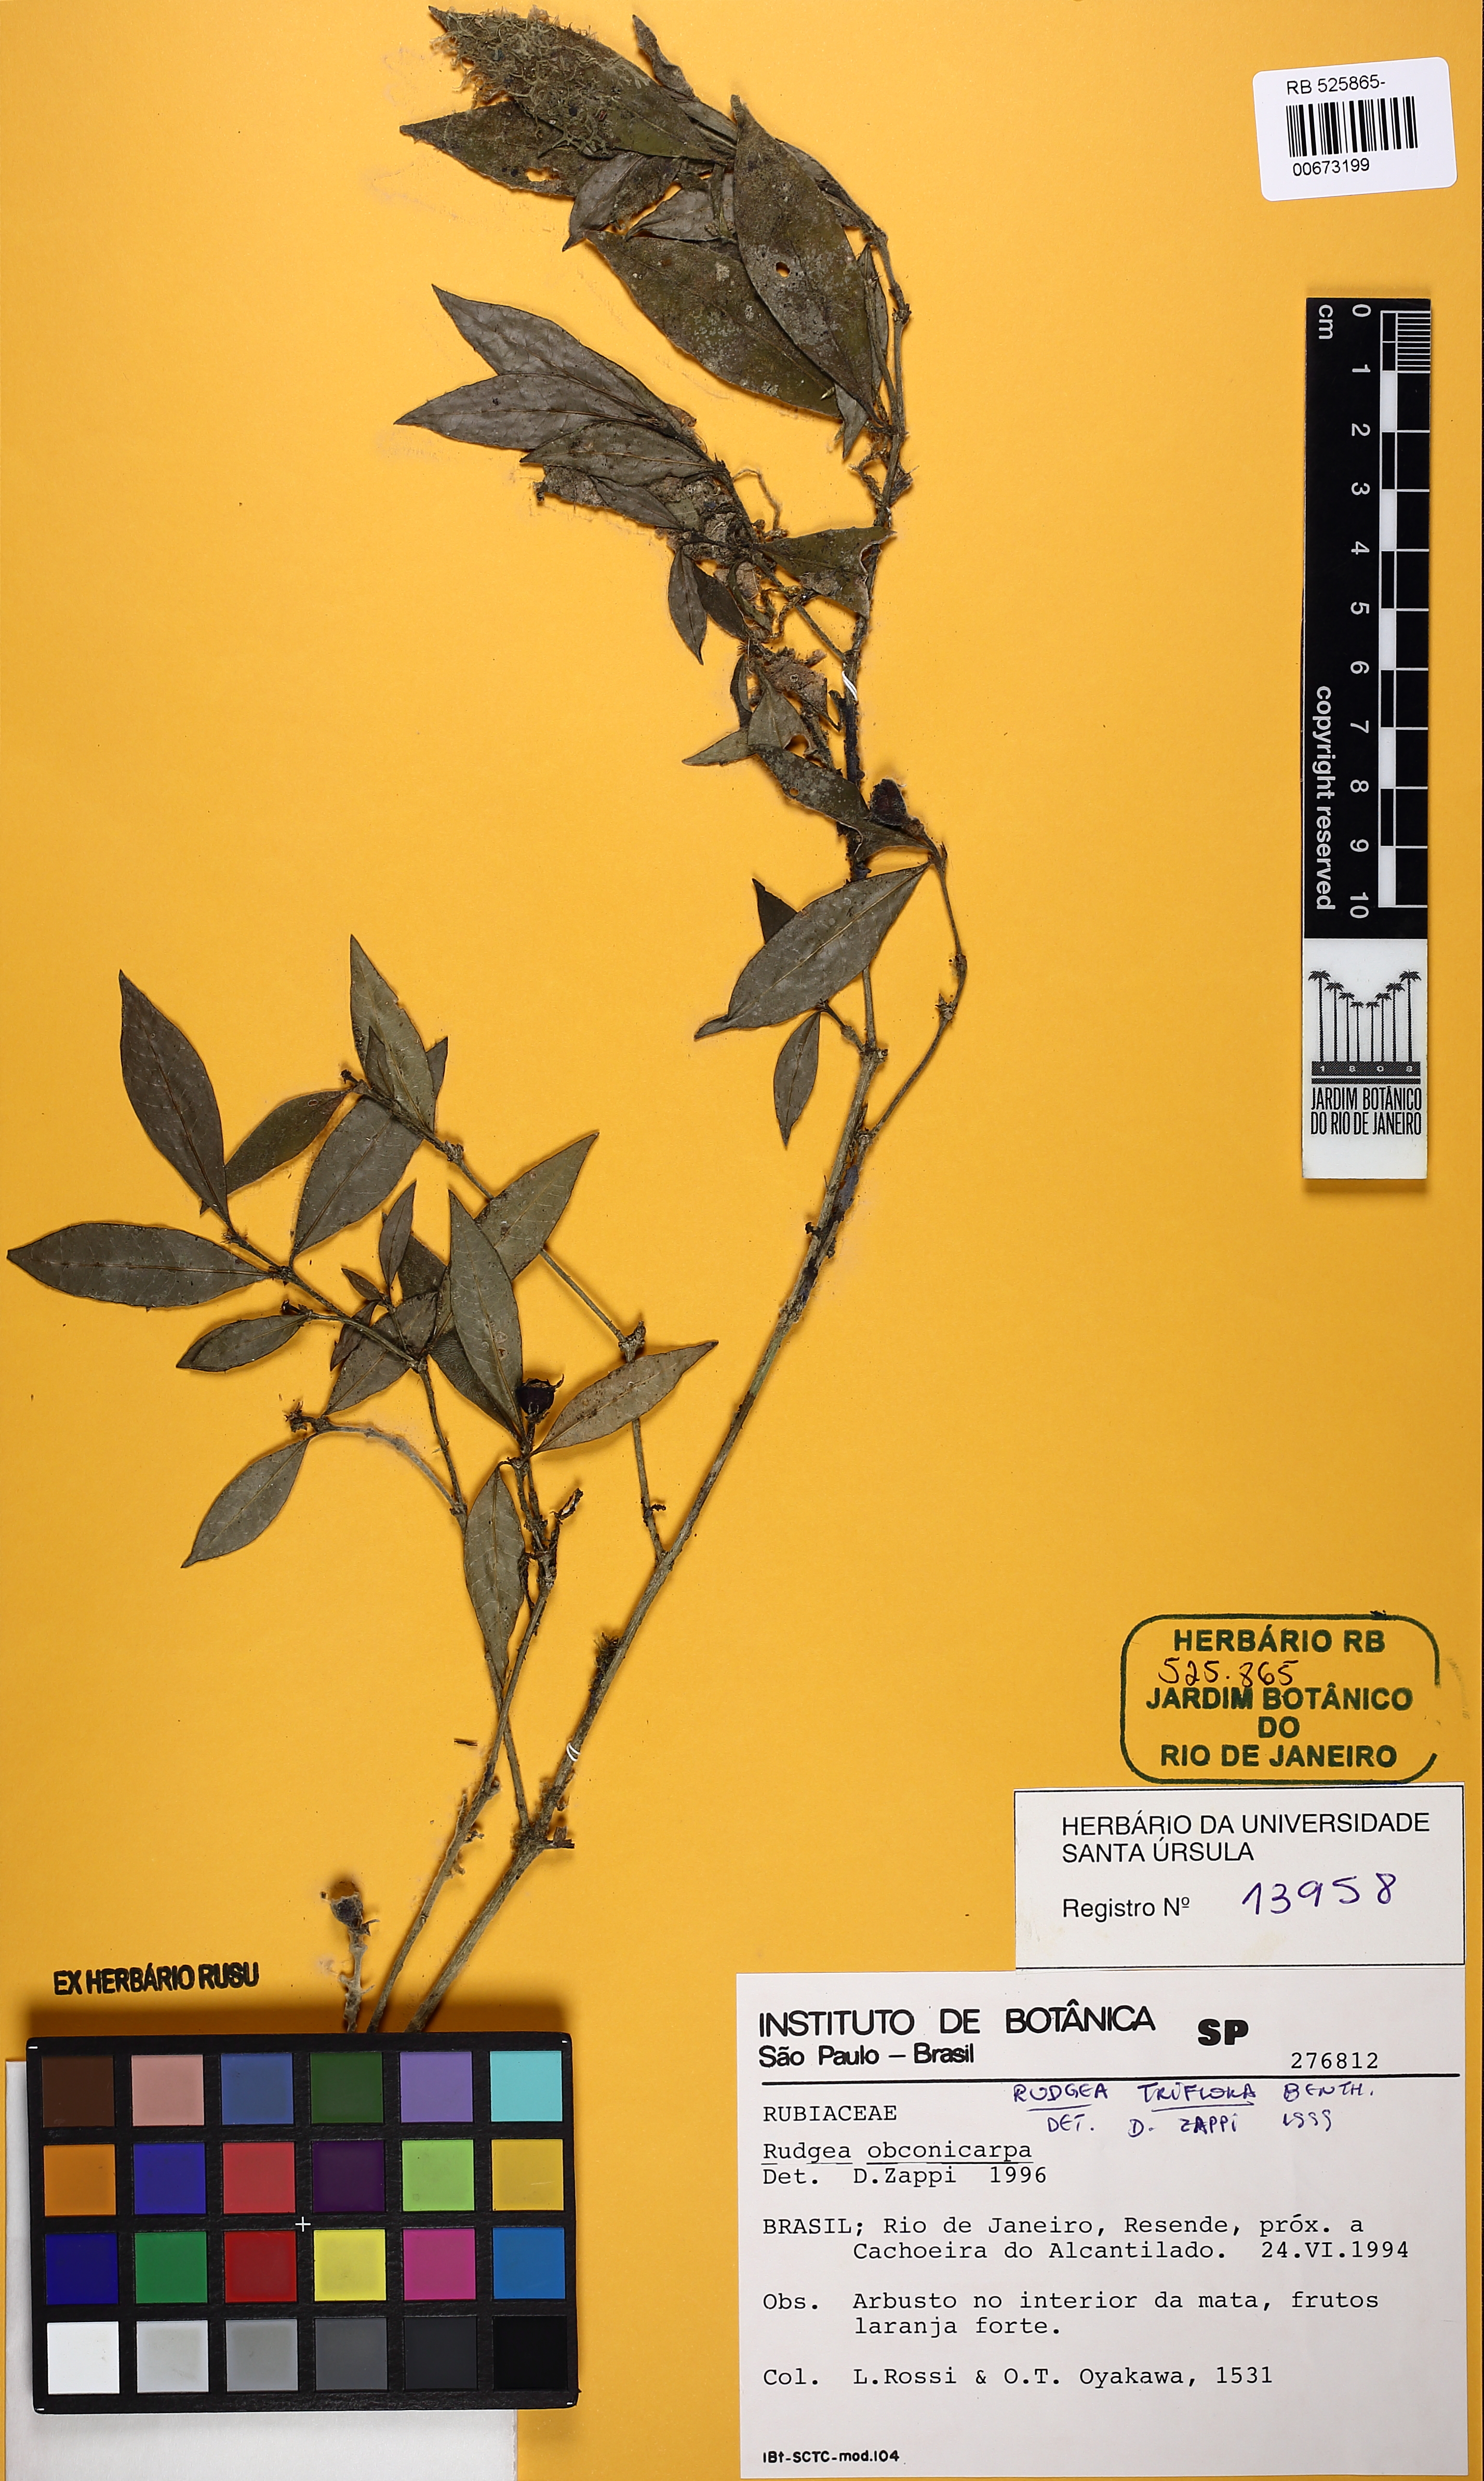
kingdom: Plantae
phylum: Tracheophyta
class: Magnoliopsida
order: Gentianales
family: Rubiaceae
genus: Rudgea
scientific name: Rudgea triflora
